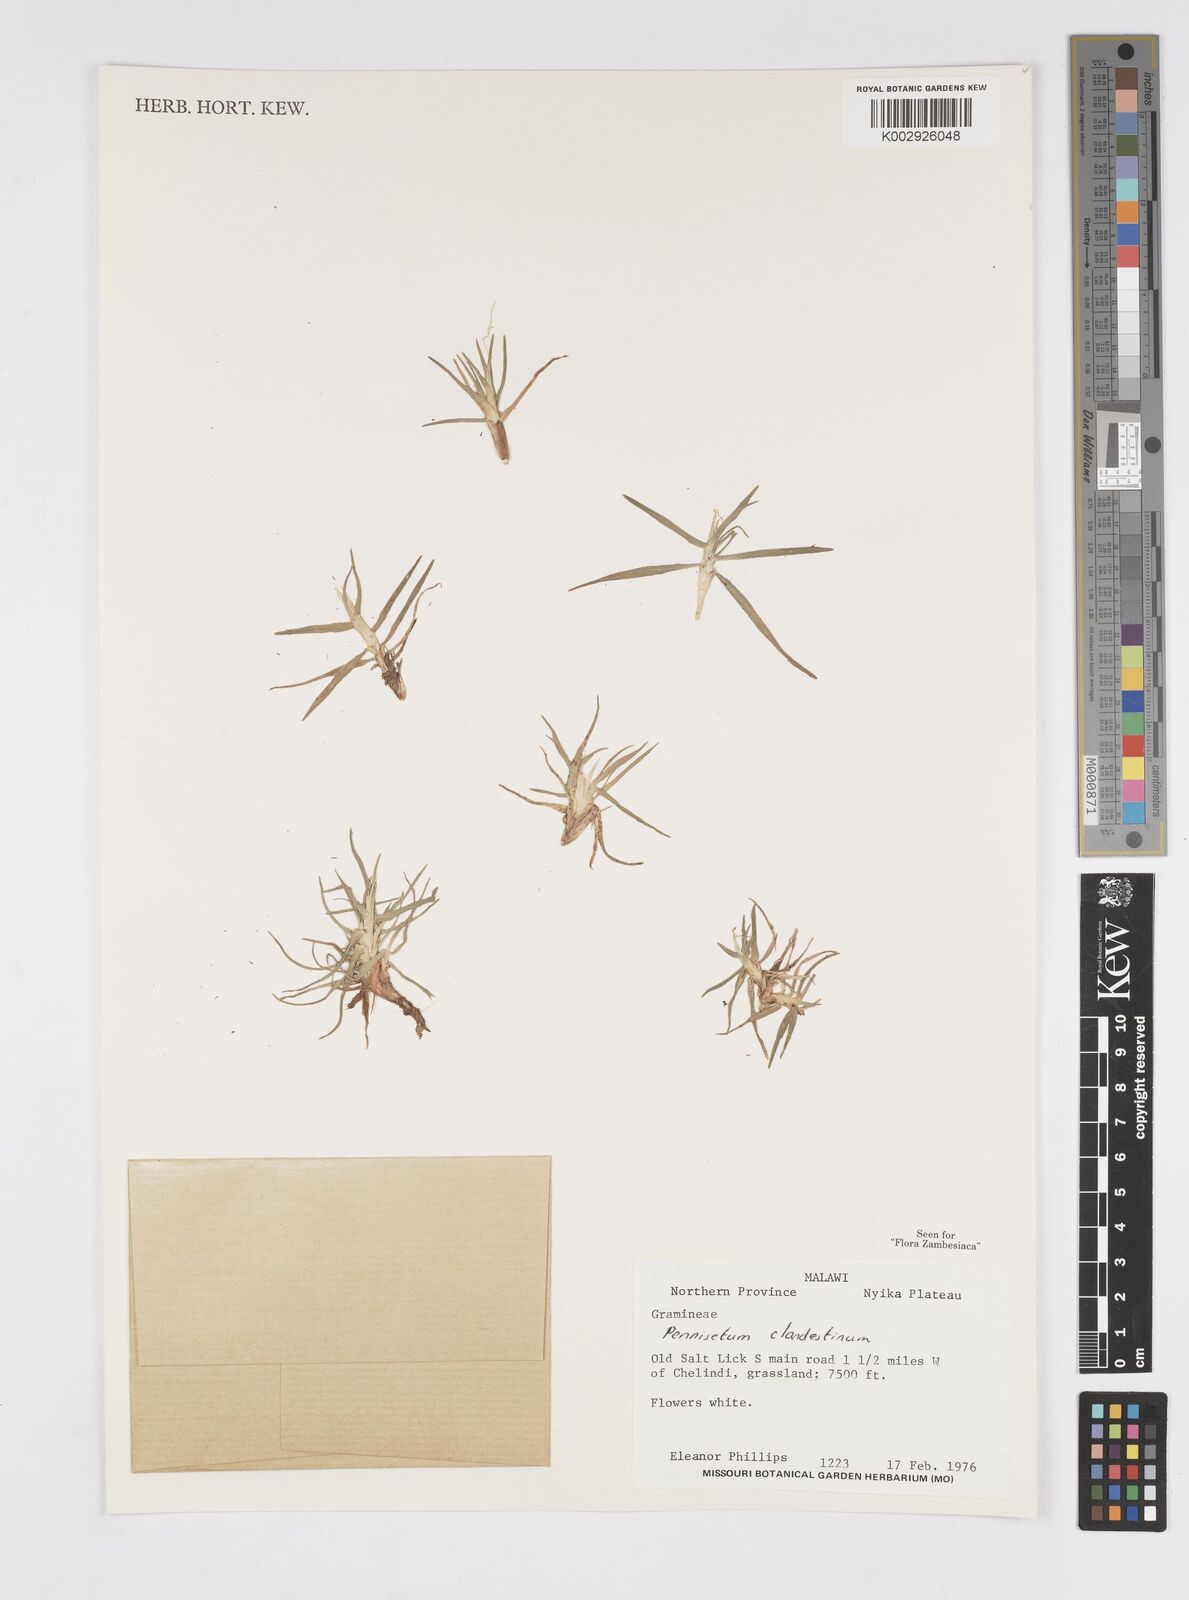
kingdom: Plantae
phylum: Tracheophyta
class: Liliopsida
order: Poales
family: Poaceae
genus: Cenchrus
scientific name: Cenchrus clandestinus
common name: Kikuyugrass
